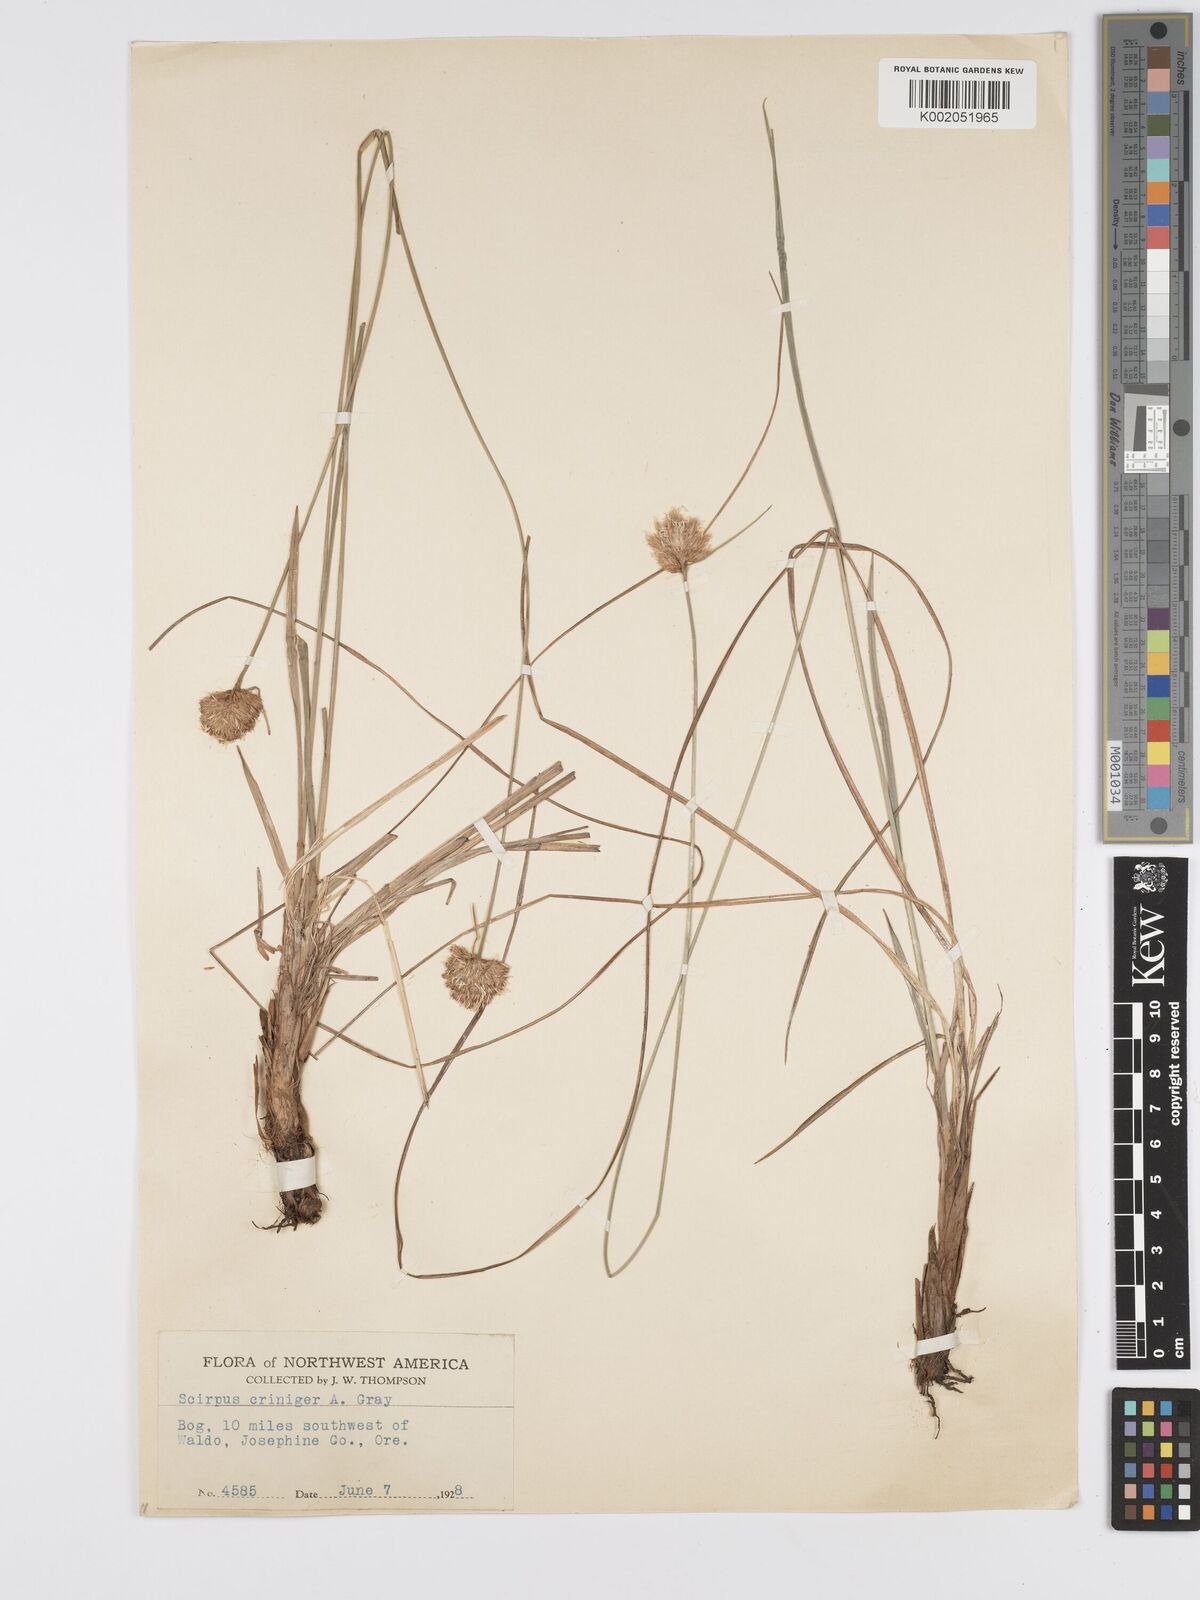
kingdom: Plantae
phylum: Tracheophyta
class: Liliopsida
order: Poales
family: Cyperaceae
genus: Calliscirpus
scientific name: Calliscirpus criniger
